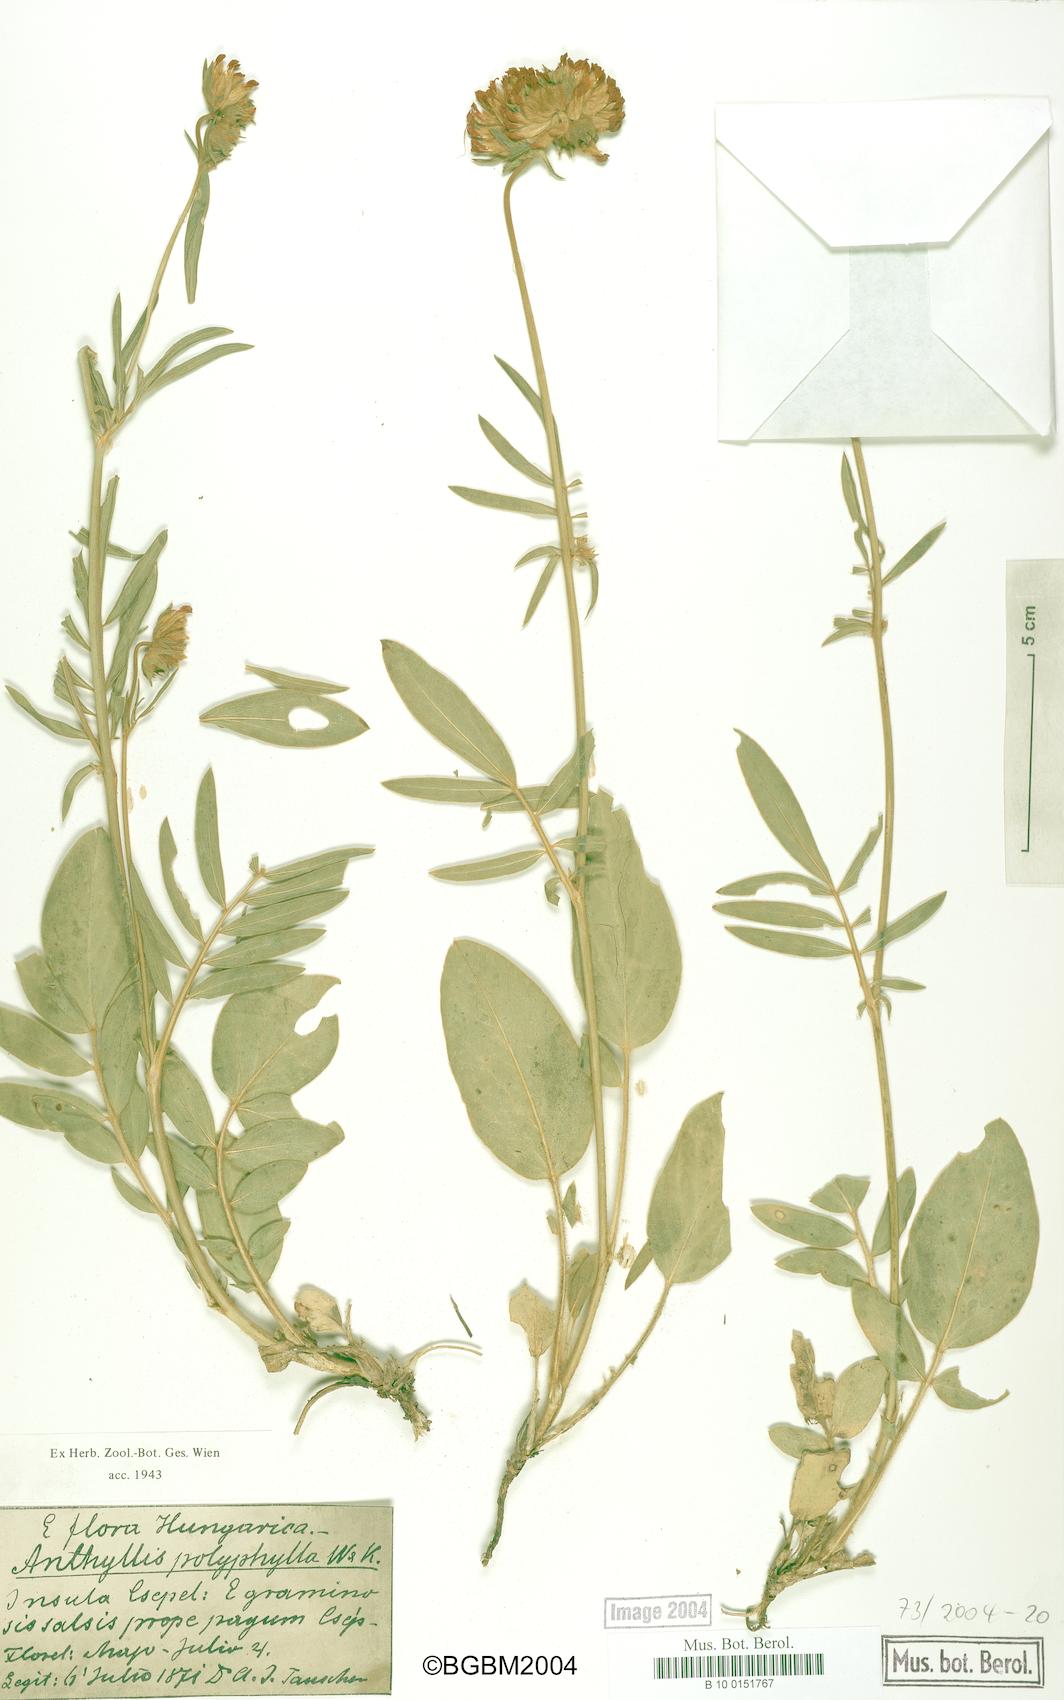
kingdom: Plantae
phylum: Tracheophyta
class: Magnoliopsida
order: Fabales
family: Fabaceae
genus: Anthyllis
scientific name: Anthyllis vulneraria
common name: Kidney vetch
